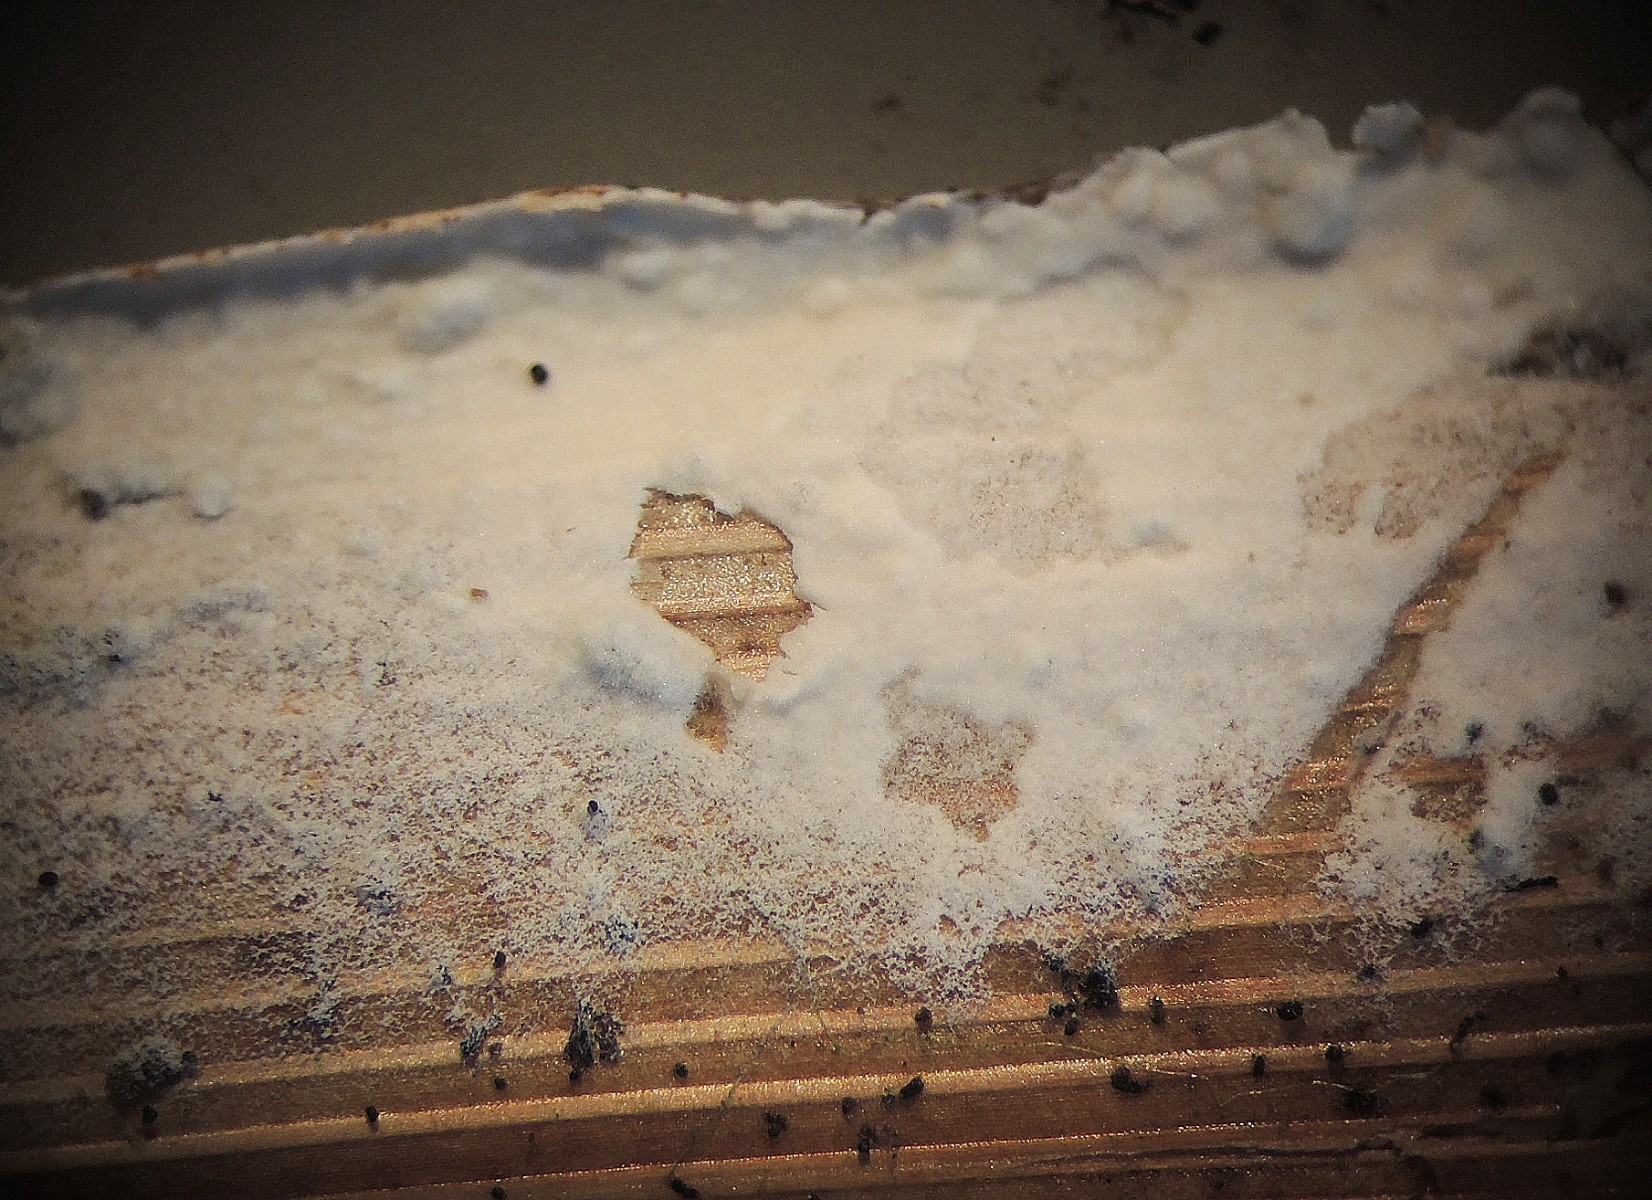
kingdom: Fungi
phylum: Basidiomycota
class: Agaricomycetes
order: Corticiales
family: Corticiaceae
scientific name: Corticiaceae
